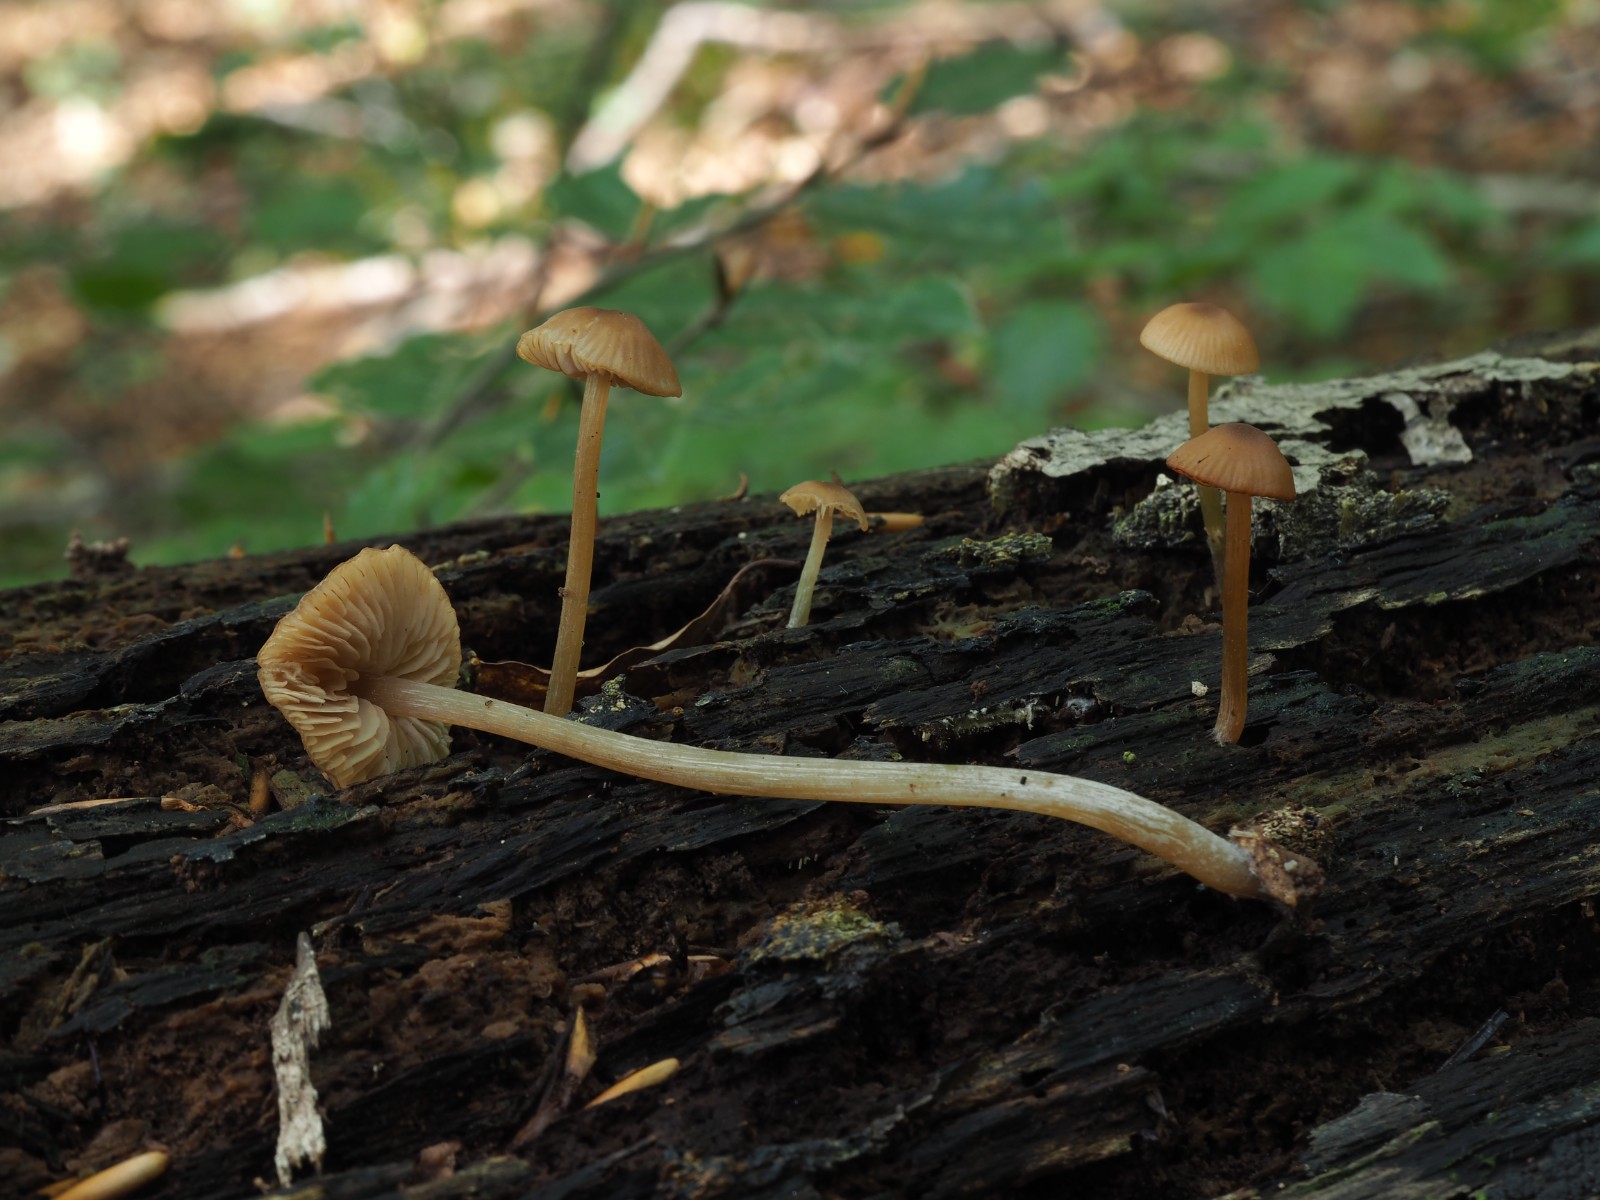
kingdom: Fungi
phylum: Basidiomycota
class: Agaricomycetes
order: Agaricales
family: Entolomataceae
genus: Entoloma
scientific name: Entoloma
